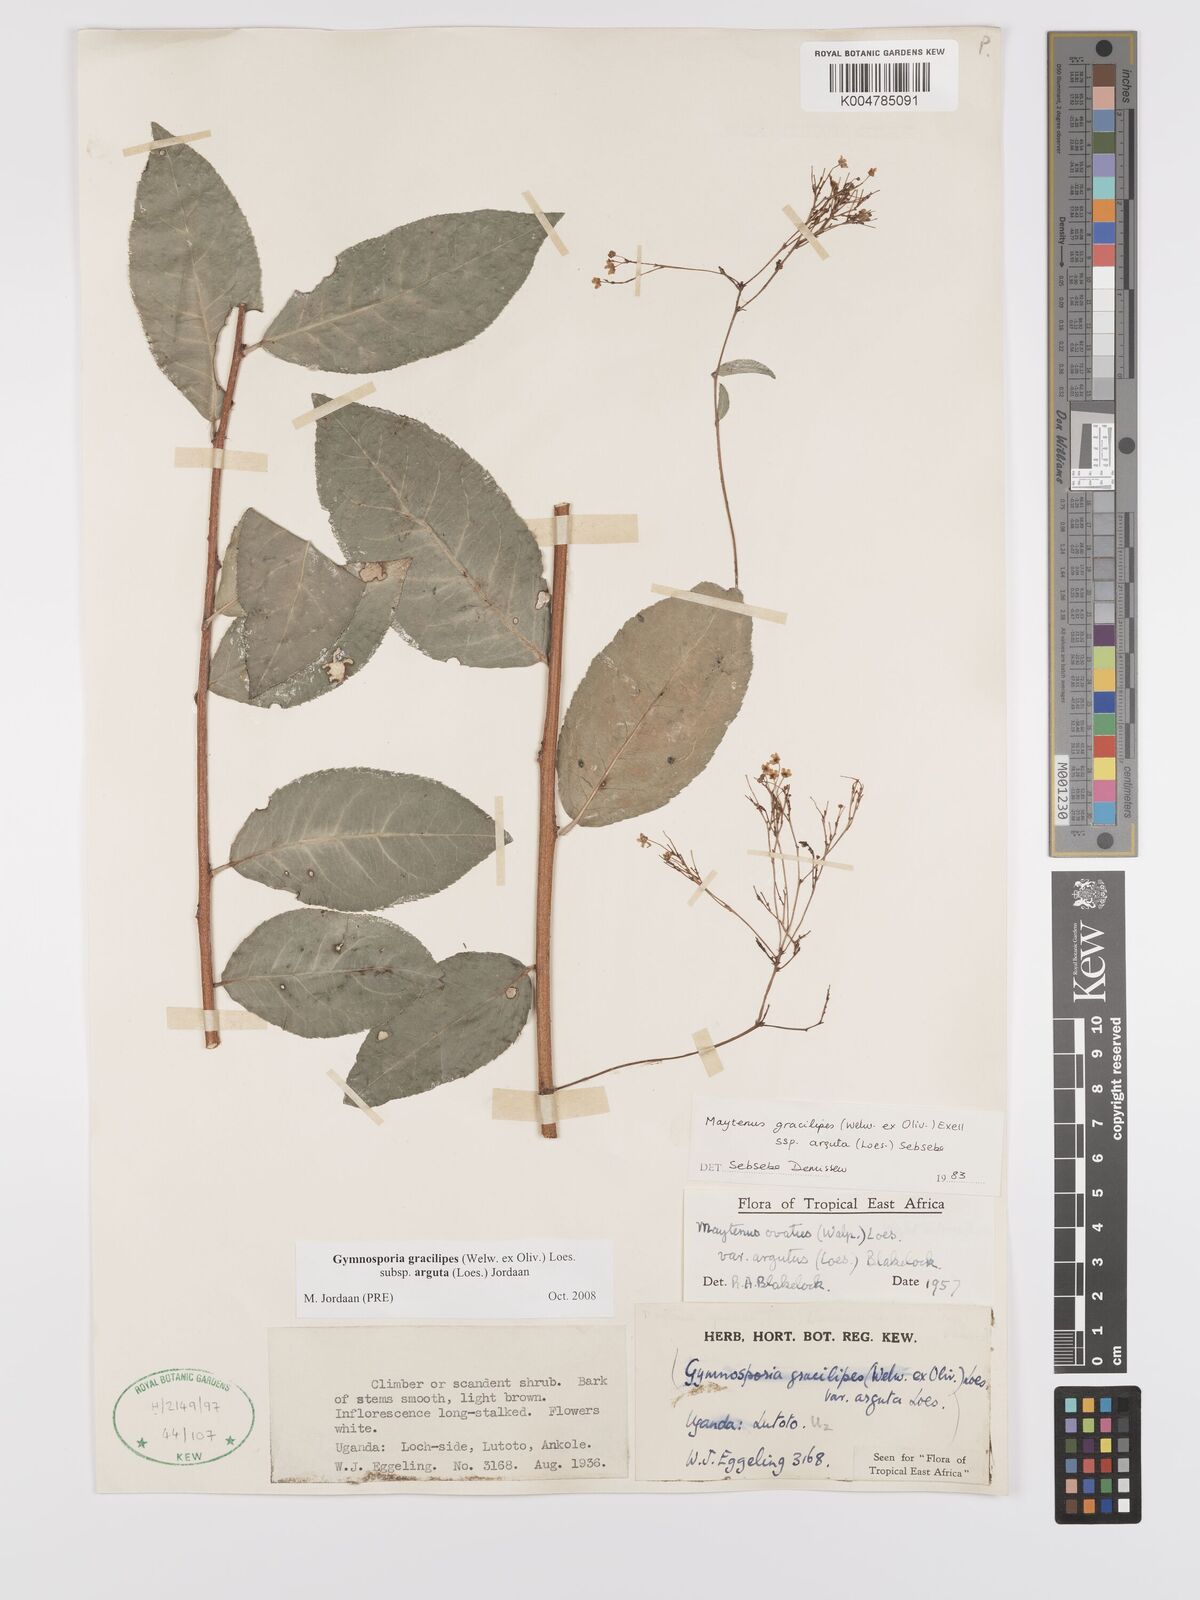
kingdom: Plantae
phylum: Tracheophyta
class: Magnoliopsida
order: Celastrales
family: Celastraceae
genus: Gymnosporia
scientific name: Gymnosporia gracilipes
